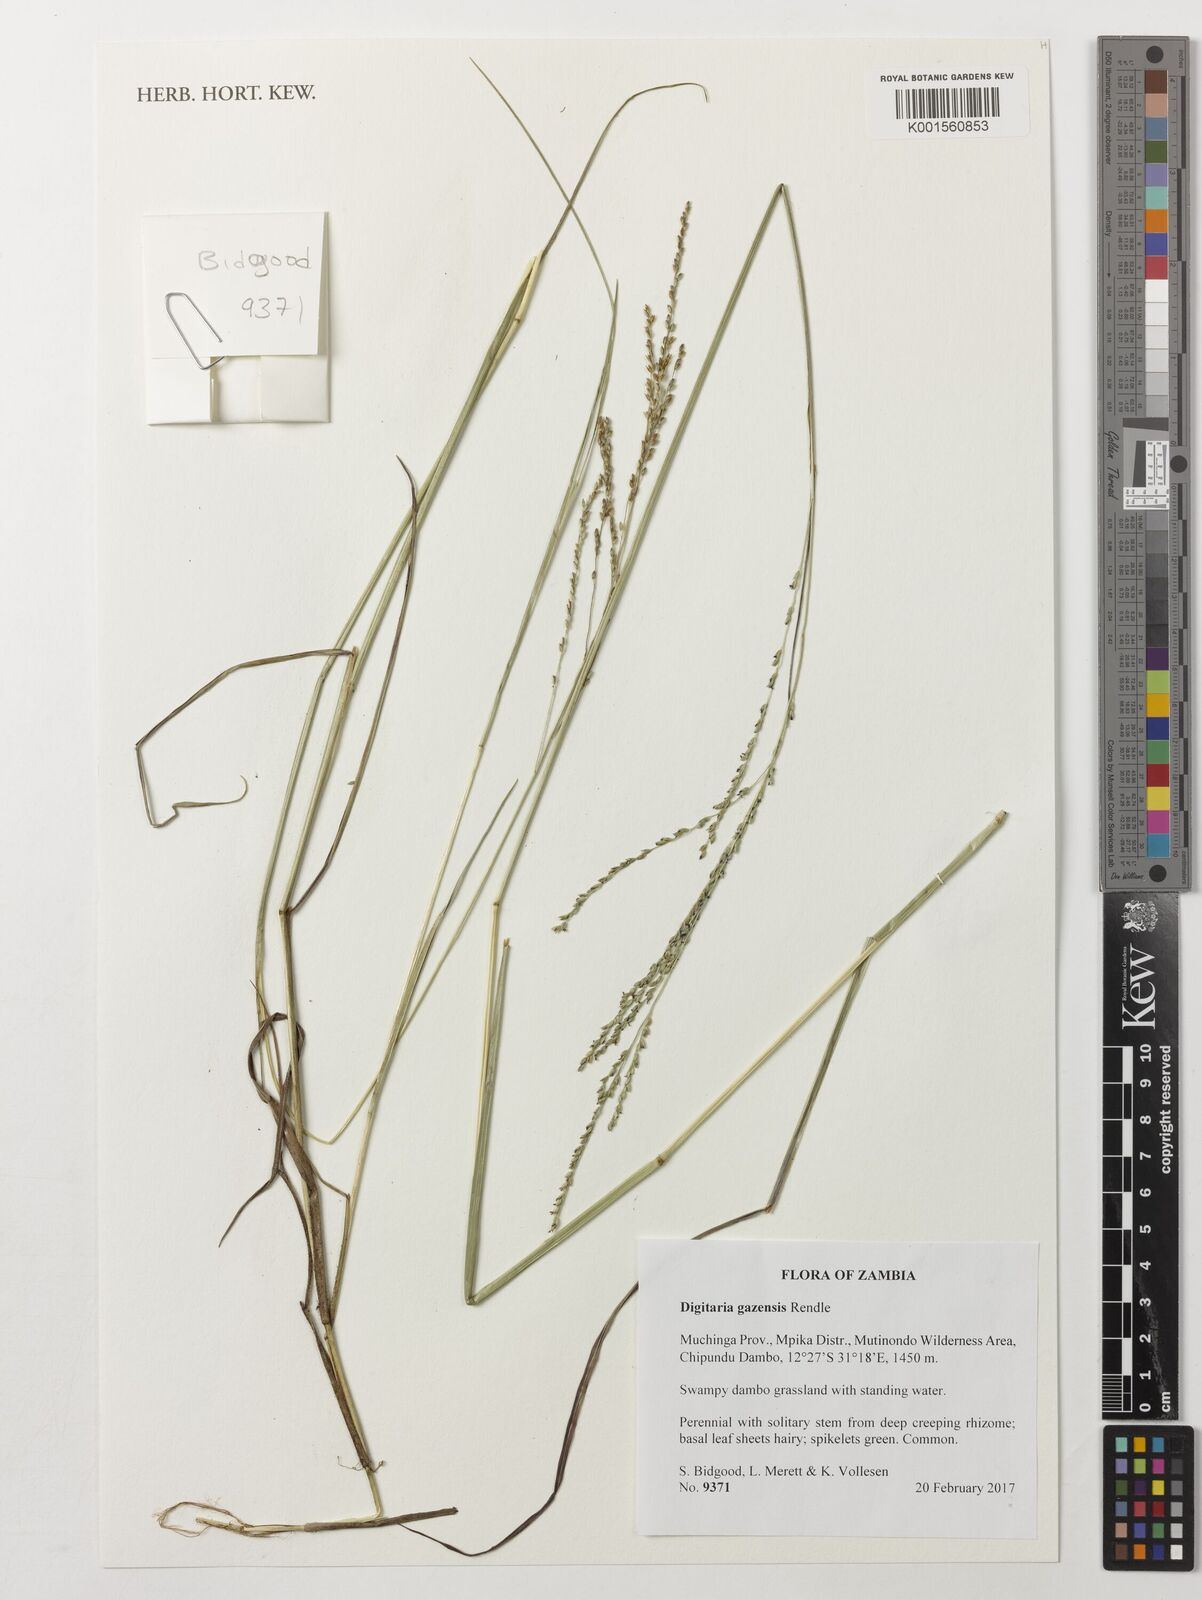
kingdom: Plantae
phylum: Tracheophyta
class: Liliopsida
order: Poales
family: Poaceae
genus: Digitaria
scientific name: Digitaria gazensis
